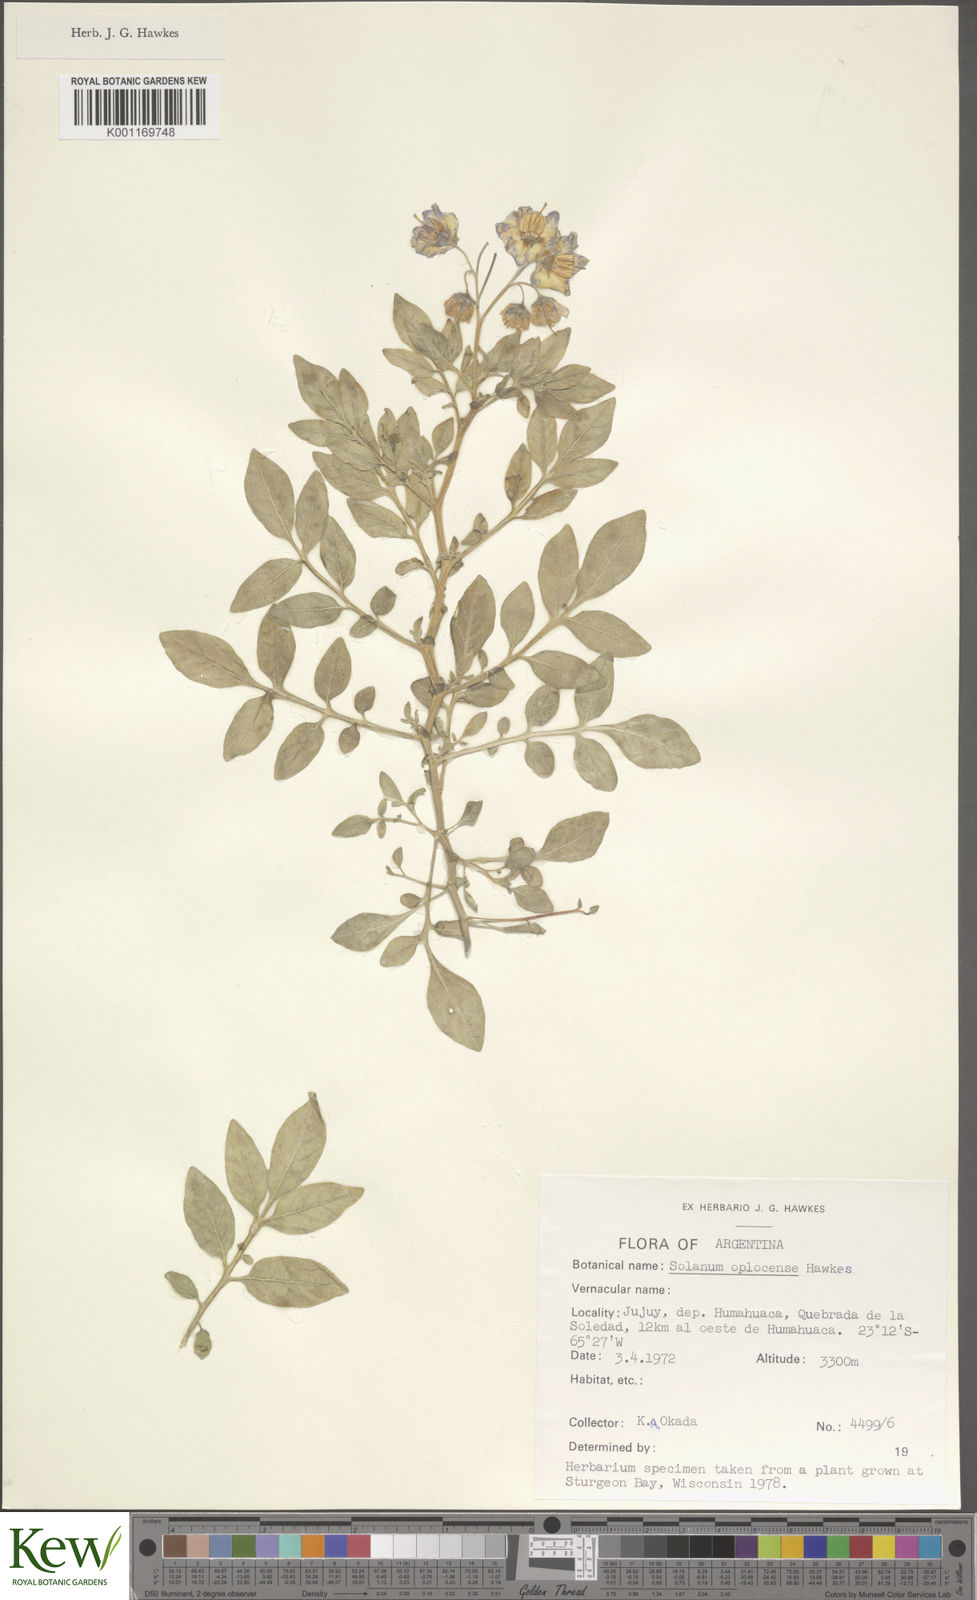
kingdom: Plantae
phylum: Tracheophyta
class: Magnoliopsida
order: Solanales
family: Solanaceae
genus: Solanum
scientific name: Solanum brevicaule
